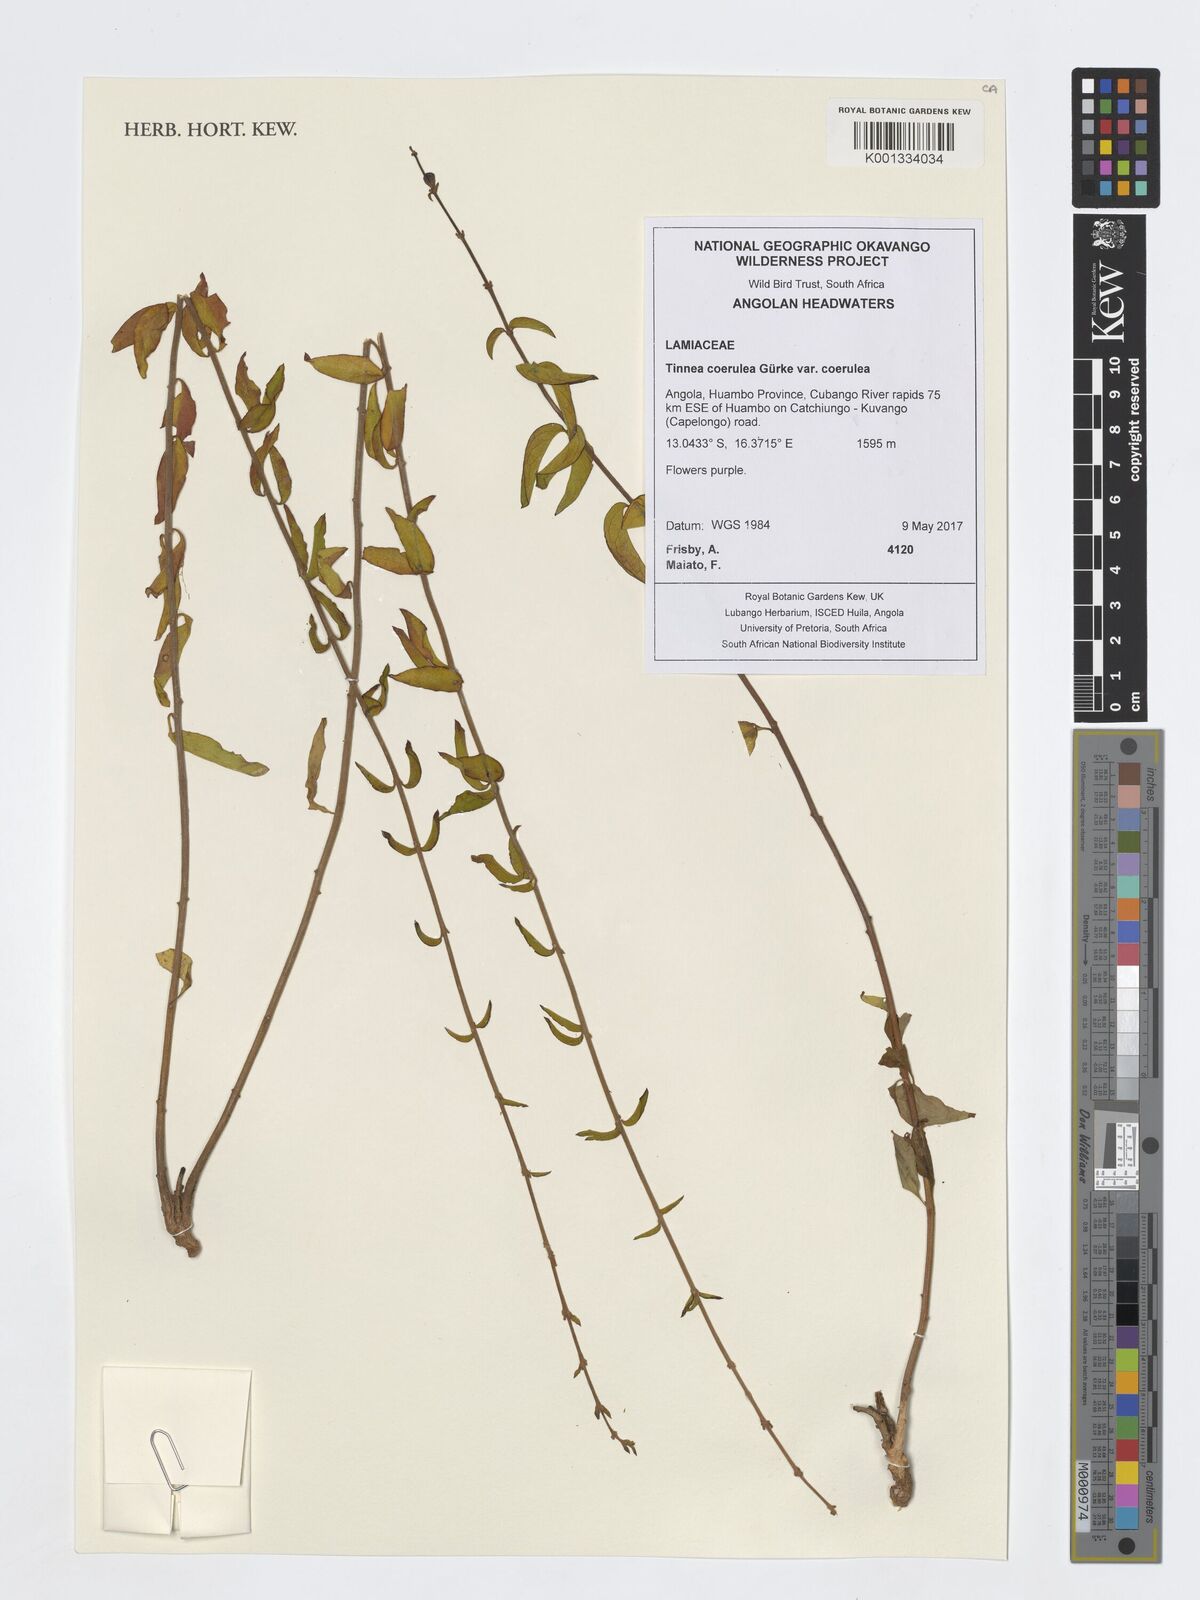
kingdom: Plantae
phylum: Tracheophyta
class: Magnoliopsida
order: Lamiales
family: Lamiaceae
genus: Tinnea
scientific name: Tinnea coerulea
